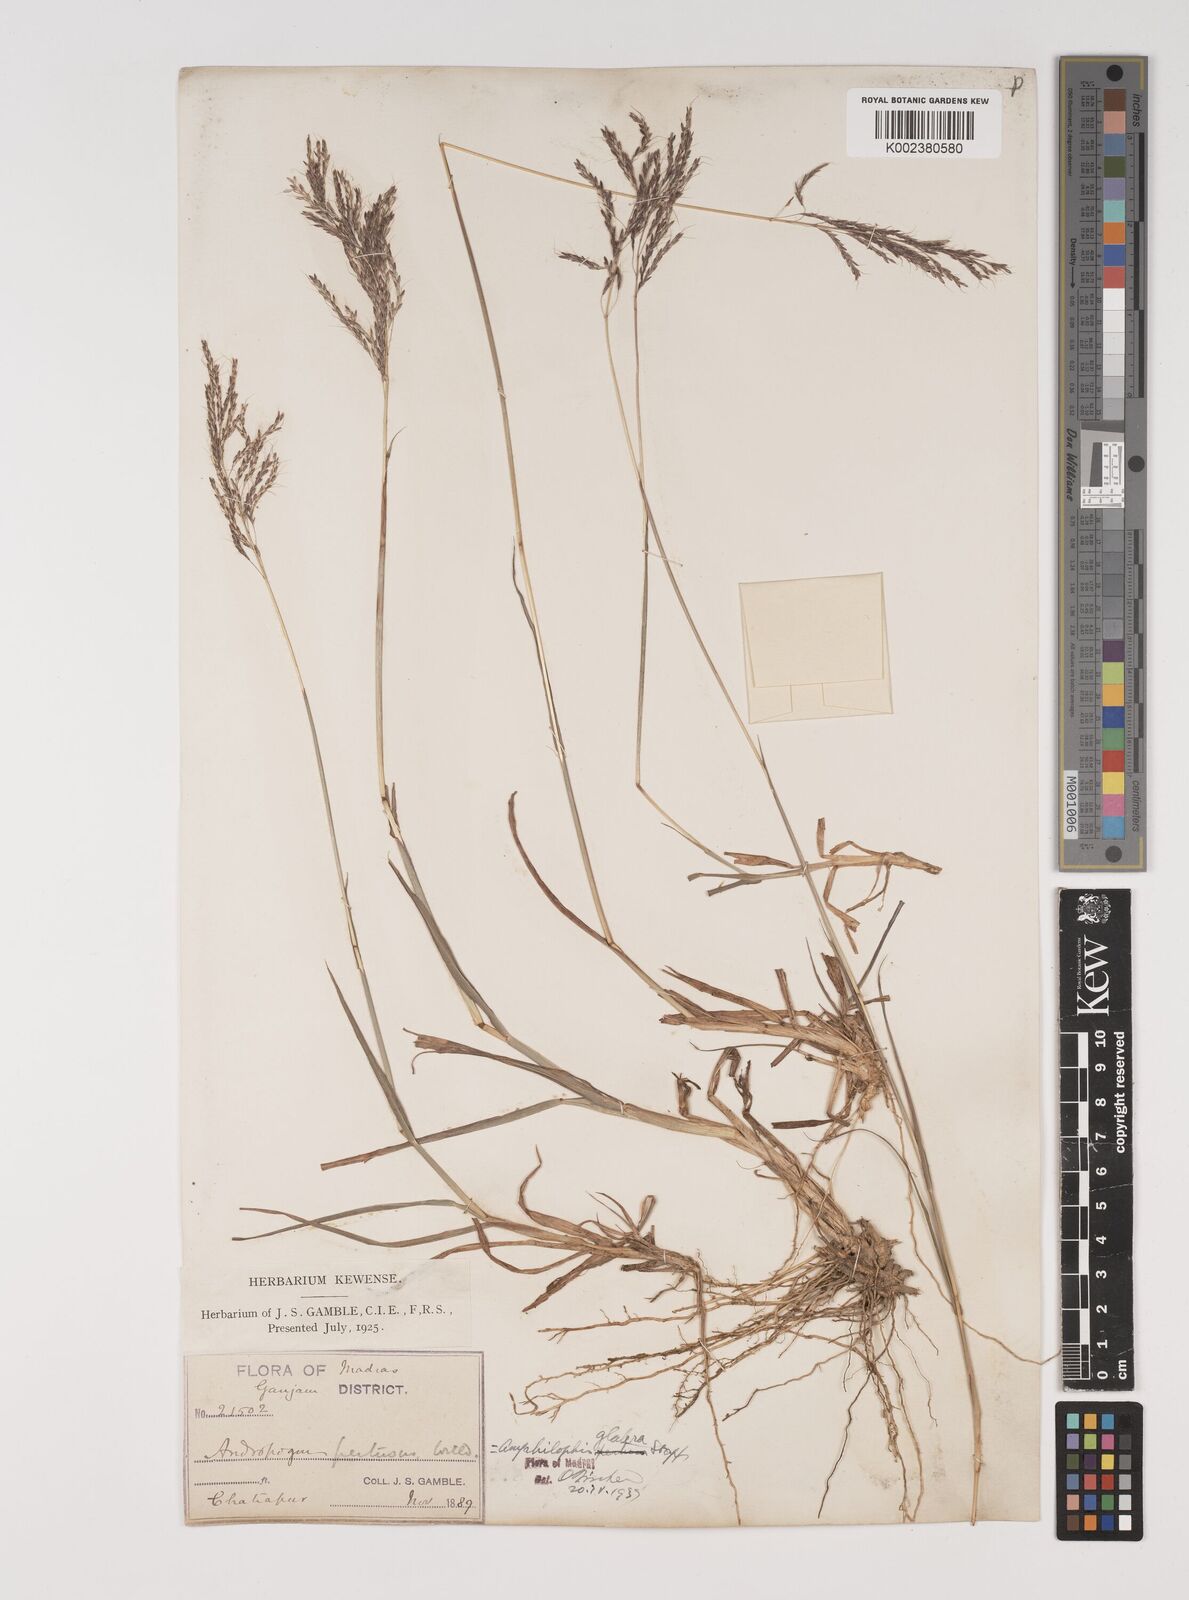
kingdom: Plantae
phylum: Tracheophyta
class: Liliopsida
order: Poales
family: Poaceae
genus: Bothriochloa
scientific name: Bothriochloa bladhii
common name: Caucasian bluestem
